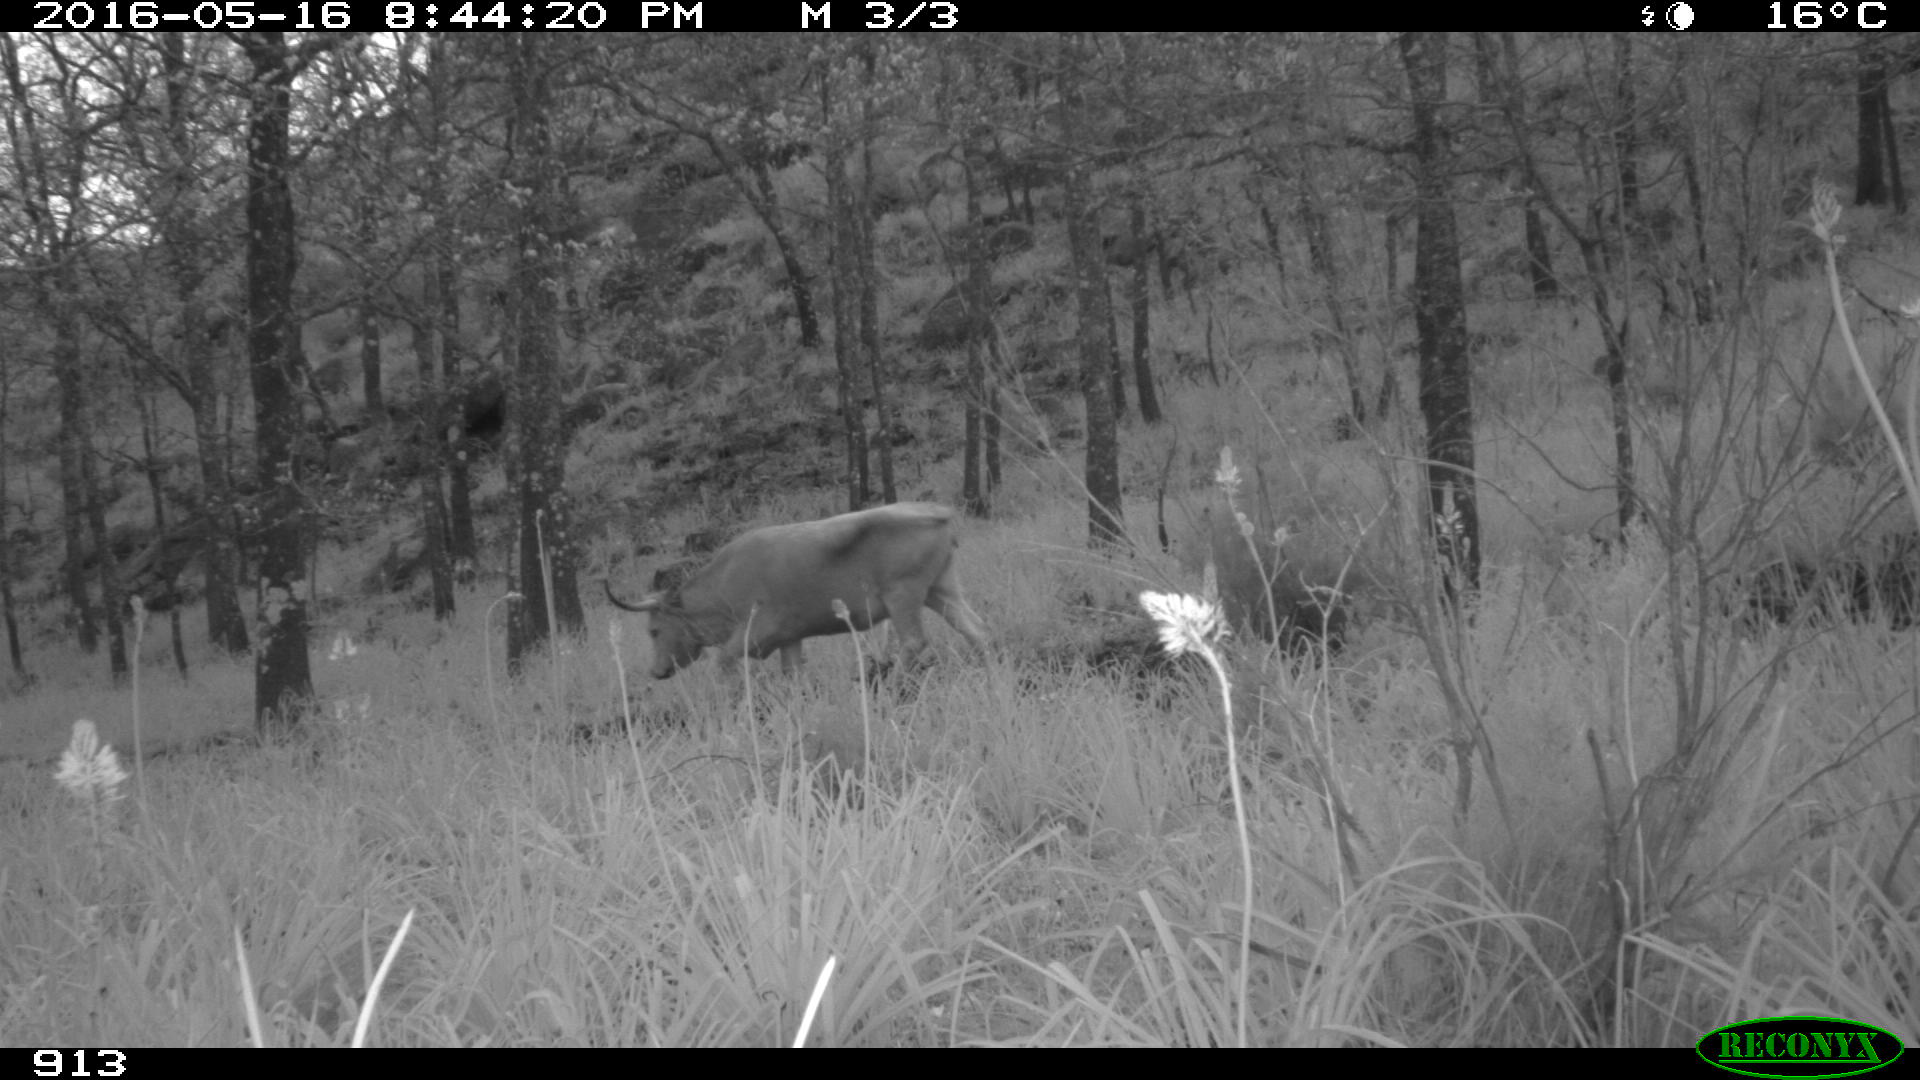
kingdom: Animalia
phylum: Chordata
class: Mammalia
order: Artiodactyla
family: Bovidae
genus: Bos
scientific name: Bos taurus
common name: Domesticated cattle
